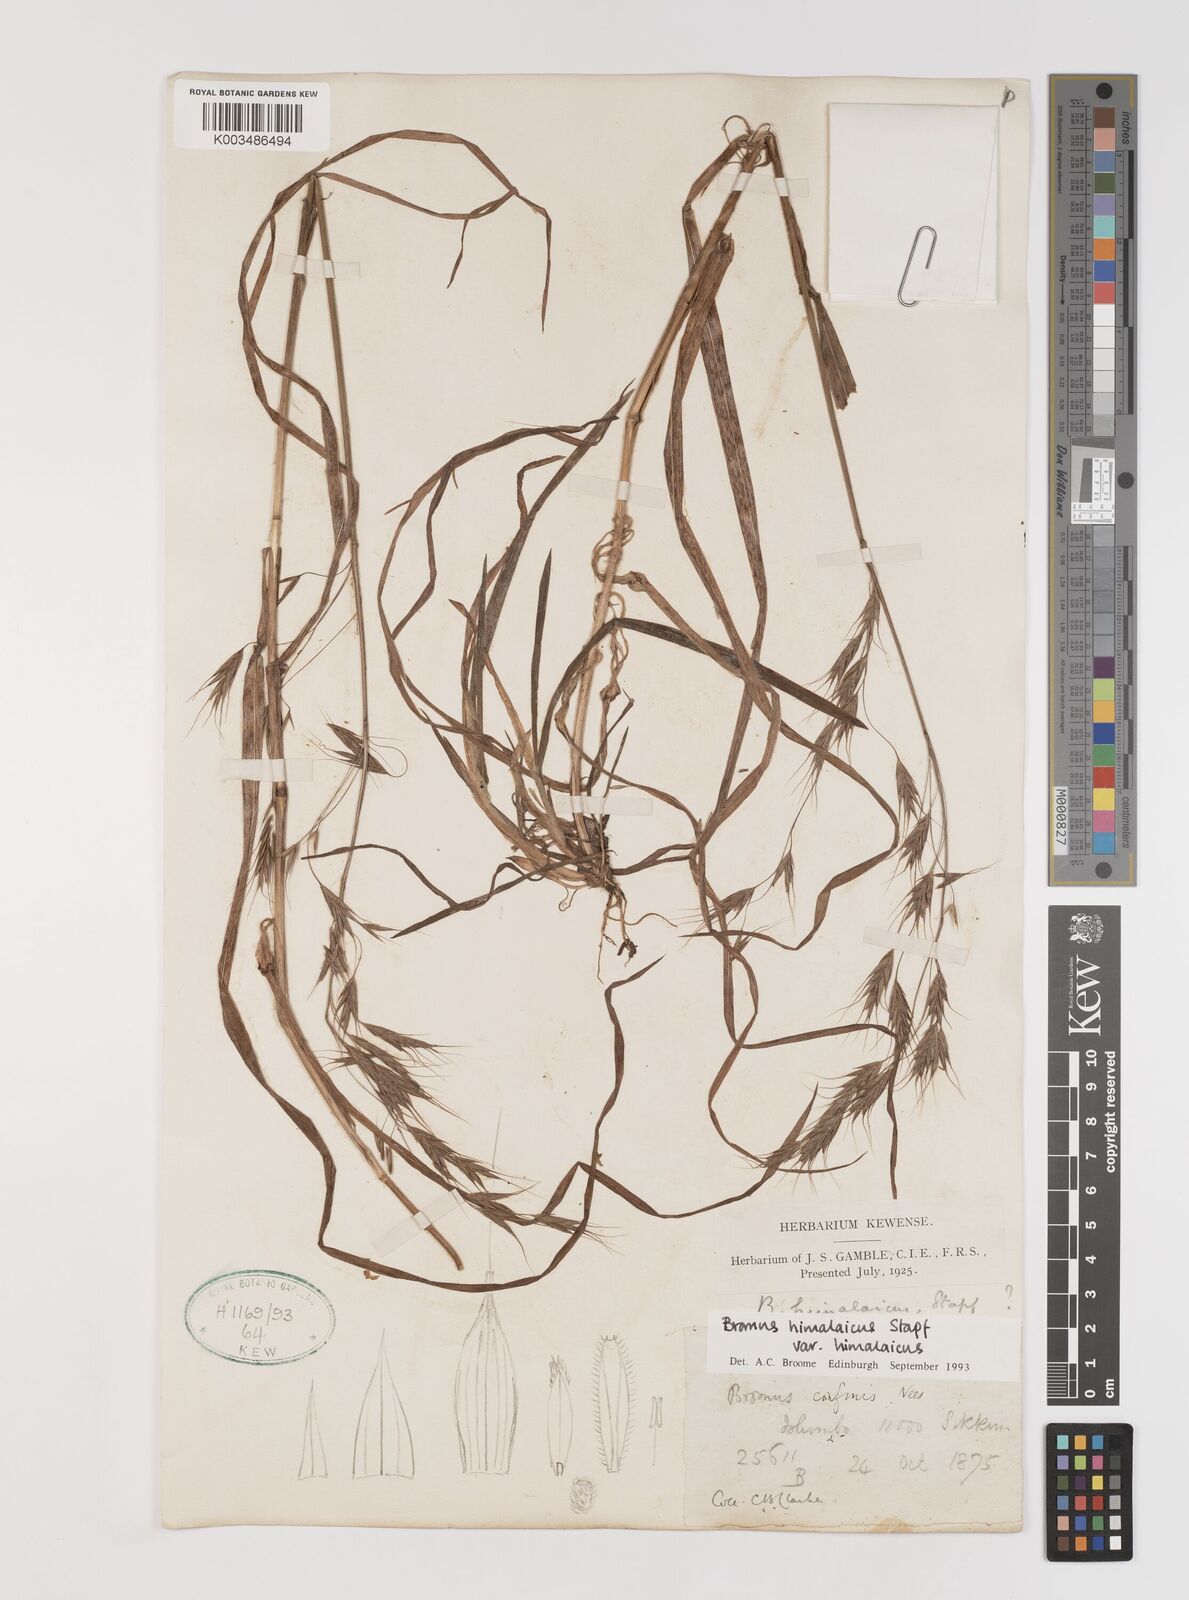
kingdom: Plantae
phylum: Tracheophyta
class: Liliopsida
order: Poales
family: Poaceae
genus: Bromus
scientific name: Bromus himalaicus
